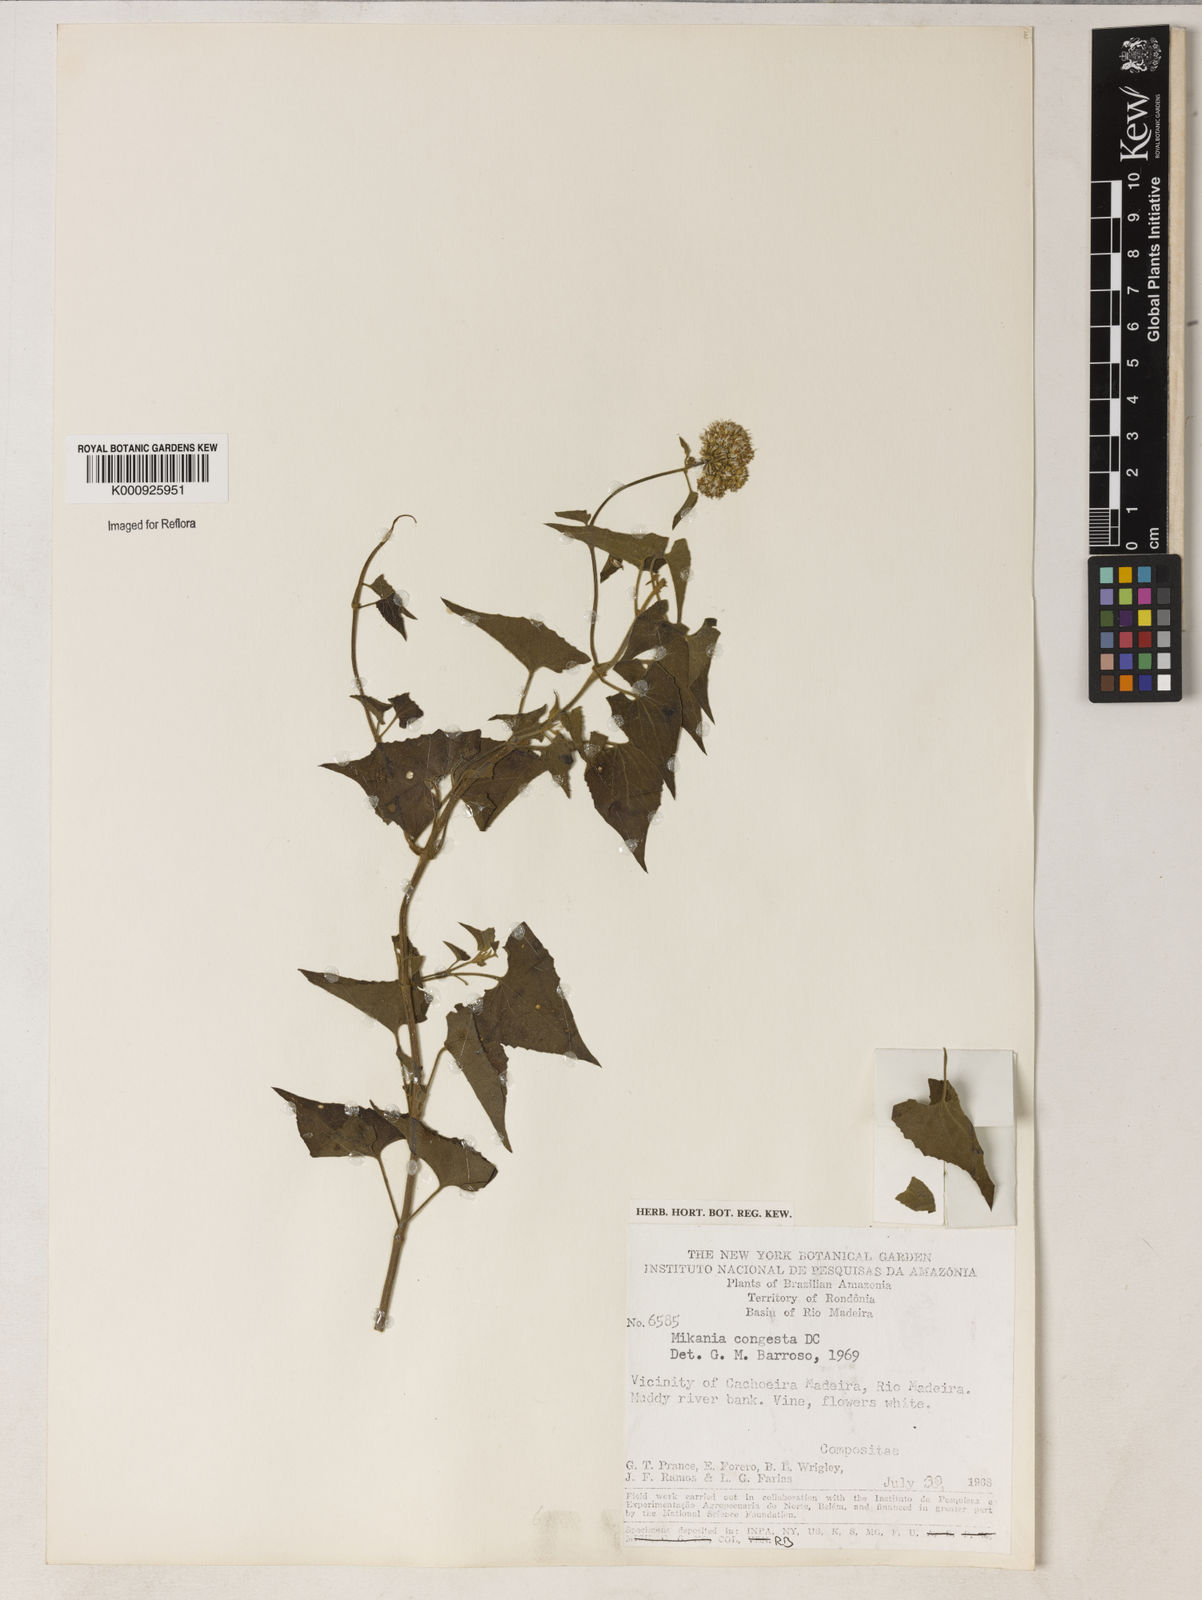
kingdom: Plantae
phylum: Tracheophyta
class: Magnoliopsida
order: Asterales
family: Asteraceae
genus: Mikania
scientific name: Mikania congesta
